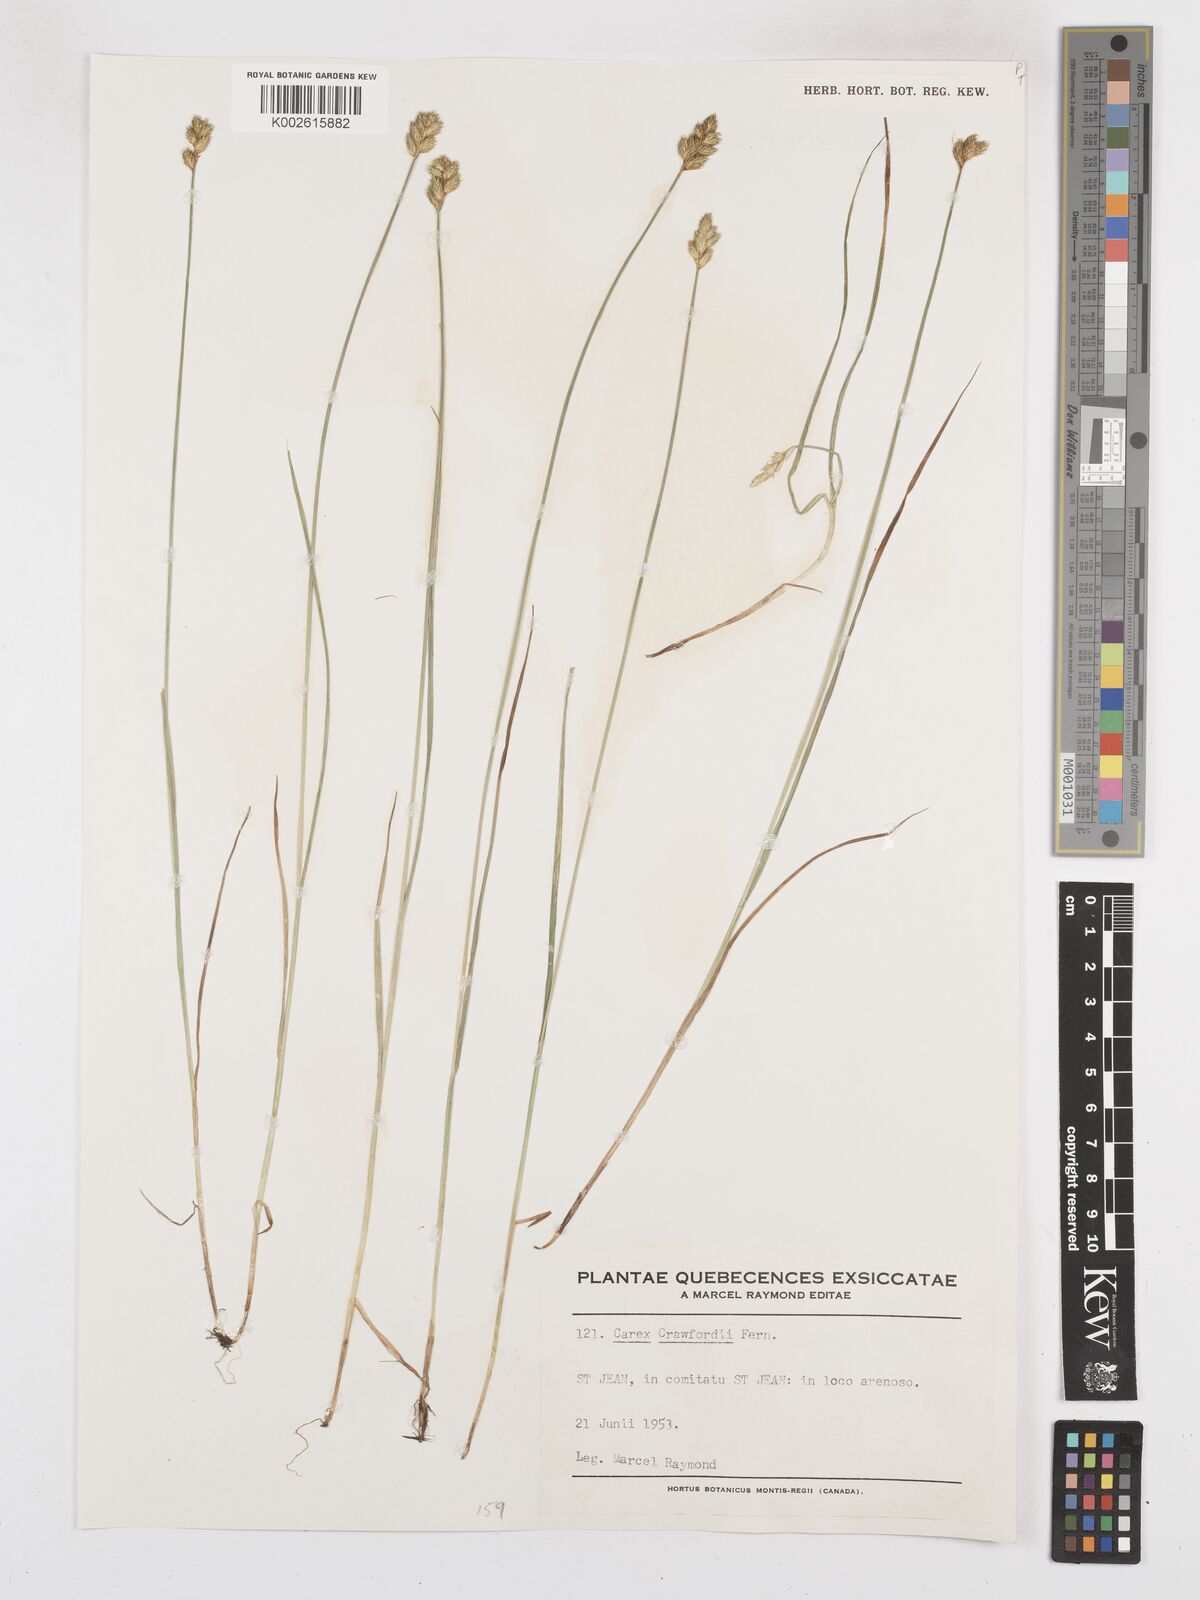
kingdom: Plantae
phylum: Tracheophyta
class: Liliopsida
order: Poales
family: Cyperaceae
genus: Carex
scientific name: Carex crawfordii
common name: Crawford's sedge
